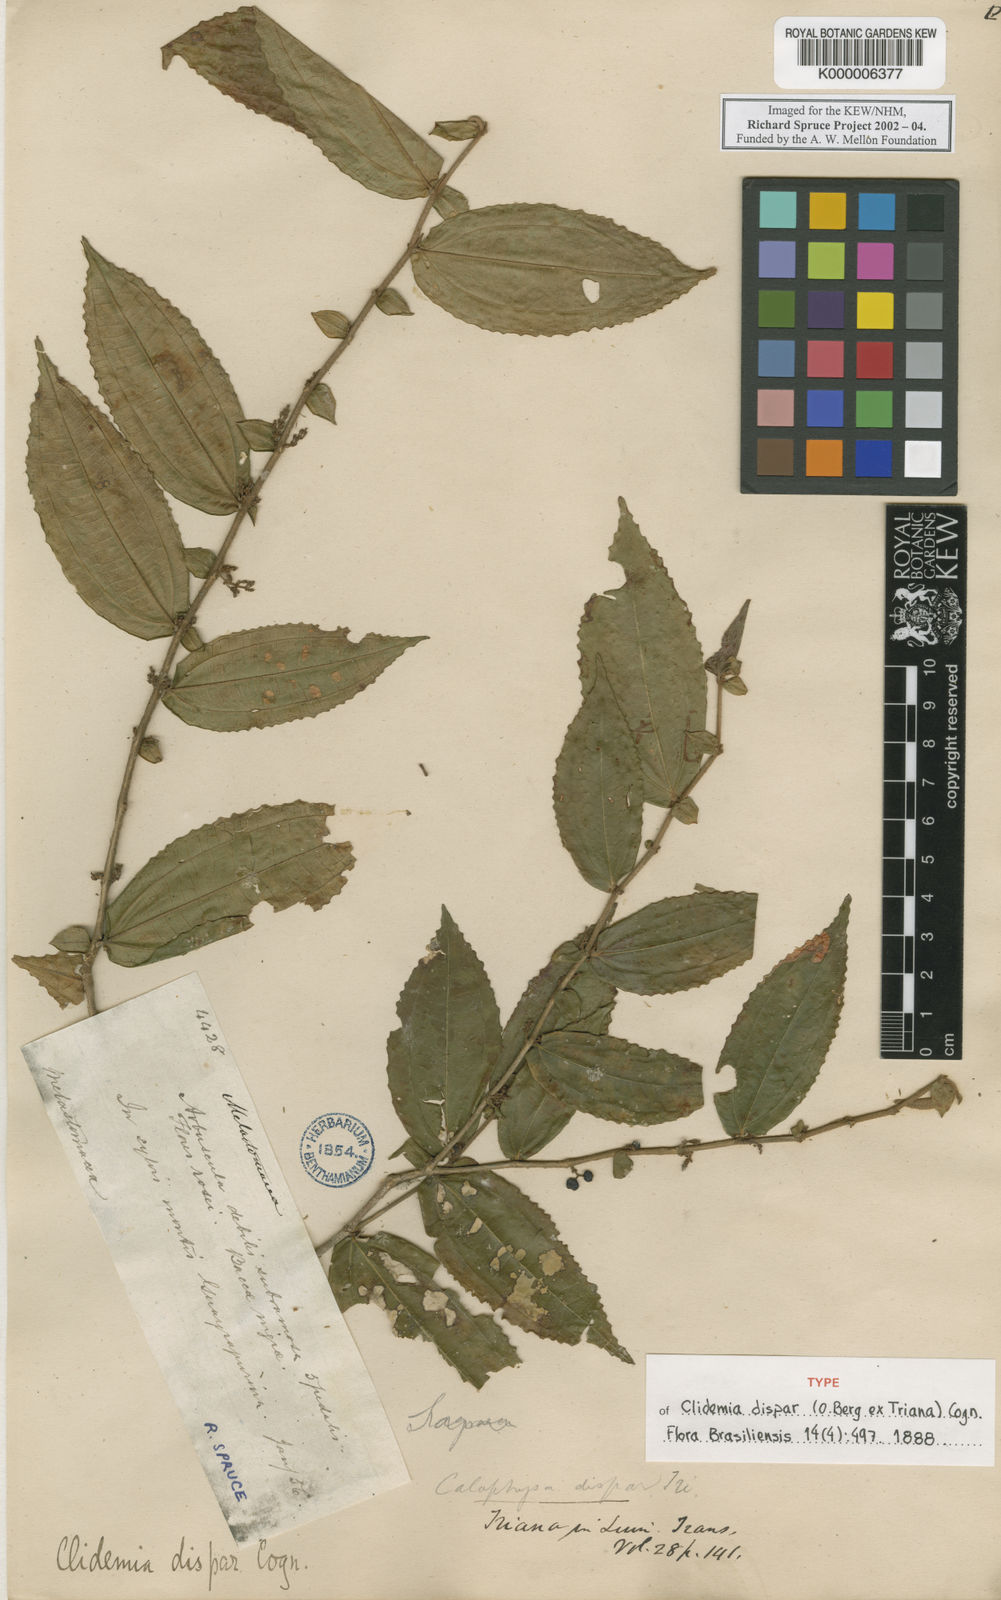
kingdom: Plantae
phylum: Tracheophyta
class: Magnoliopsida
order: Myrtales
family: Melastomataceae
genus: Miconia
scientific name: Miconia dimorphica
